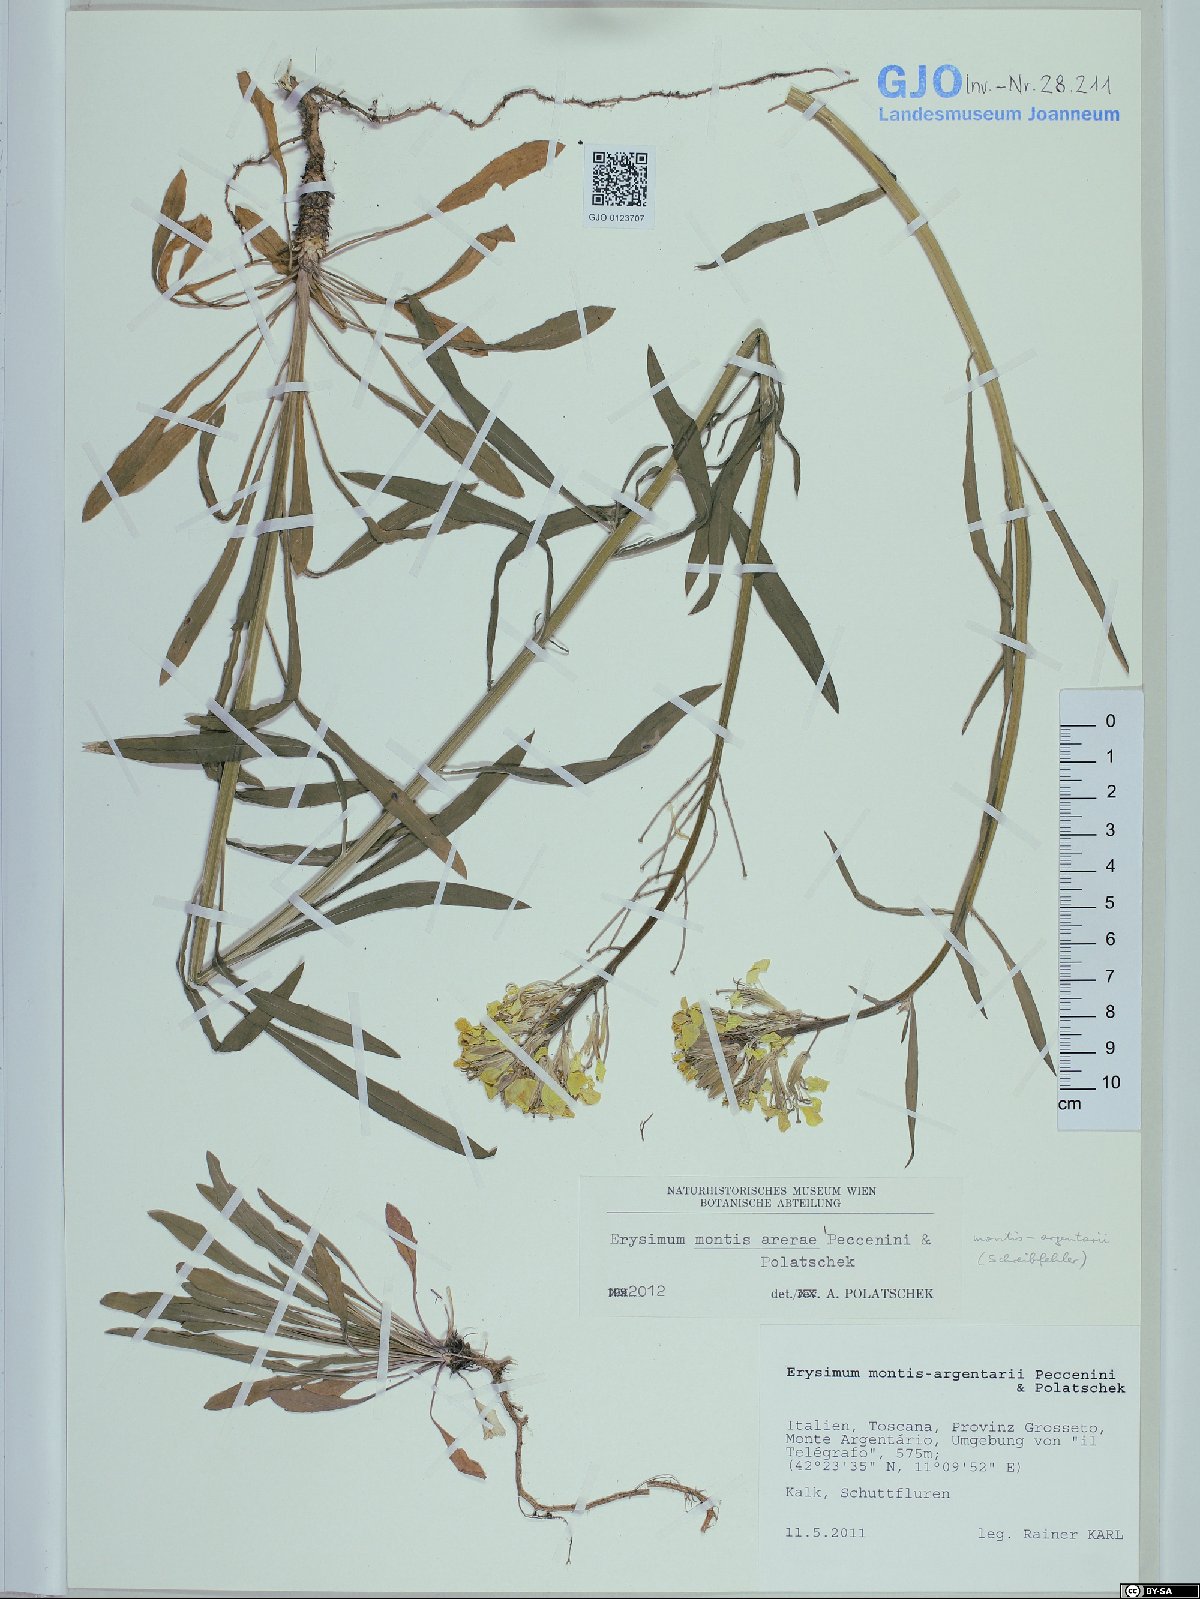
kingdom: Plantae
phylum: Tracheophyta
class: Magnoliopsida
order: Brassicales
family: Brassicaceae
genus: Erysimum
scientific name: Erysimum maremmanum
